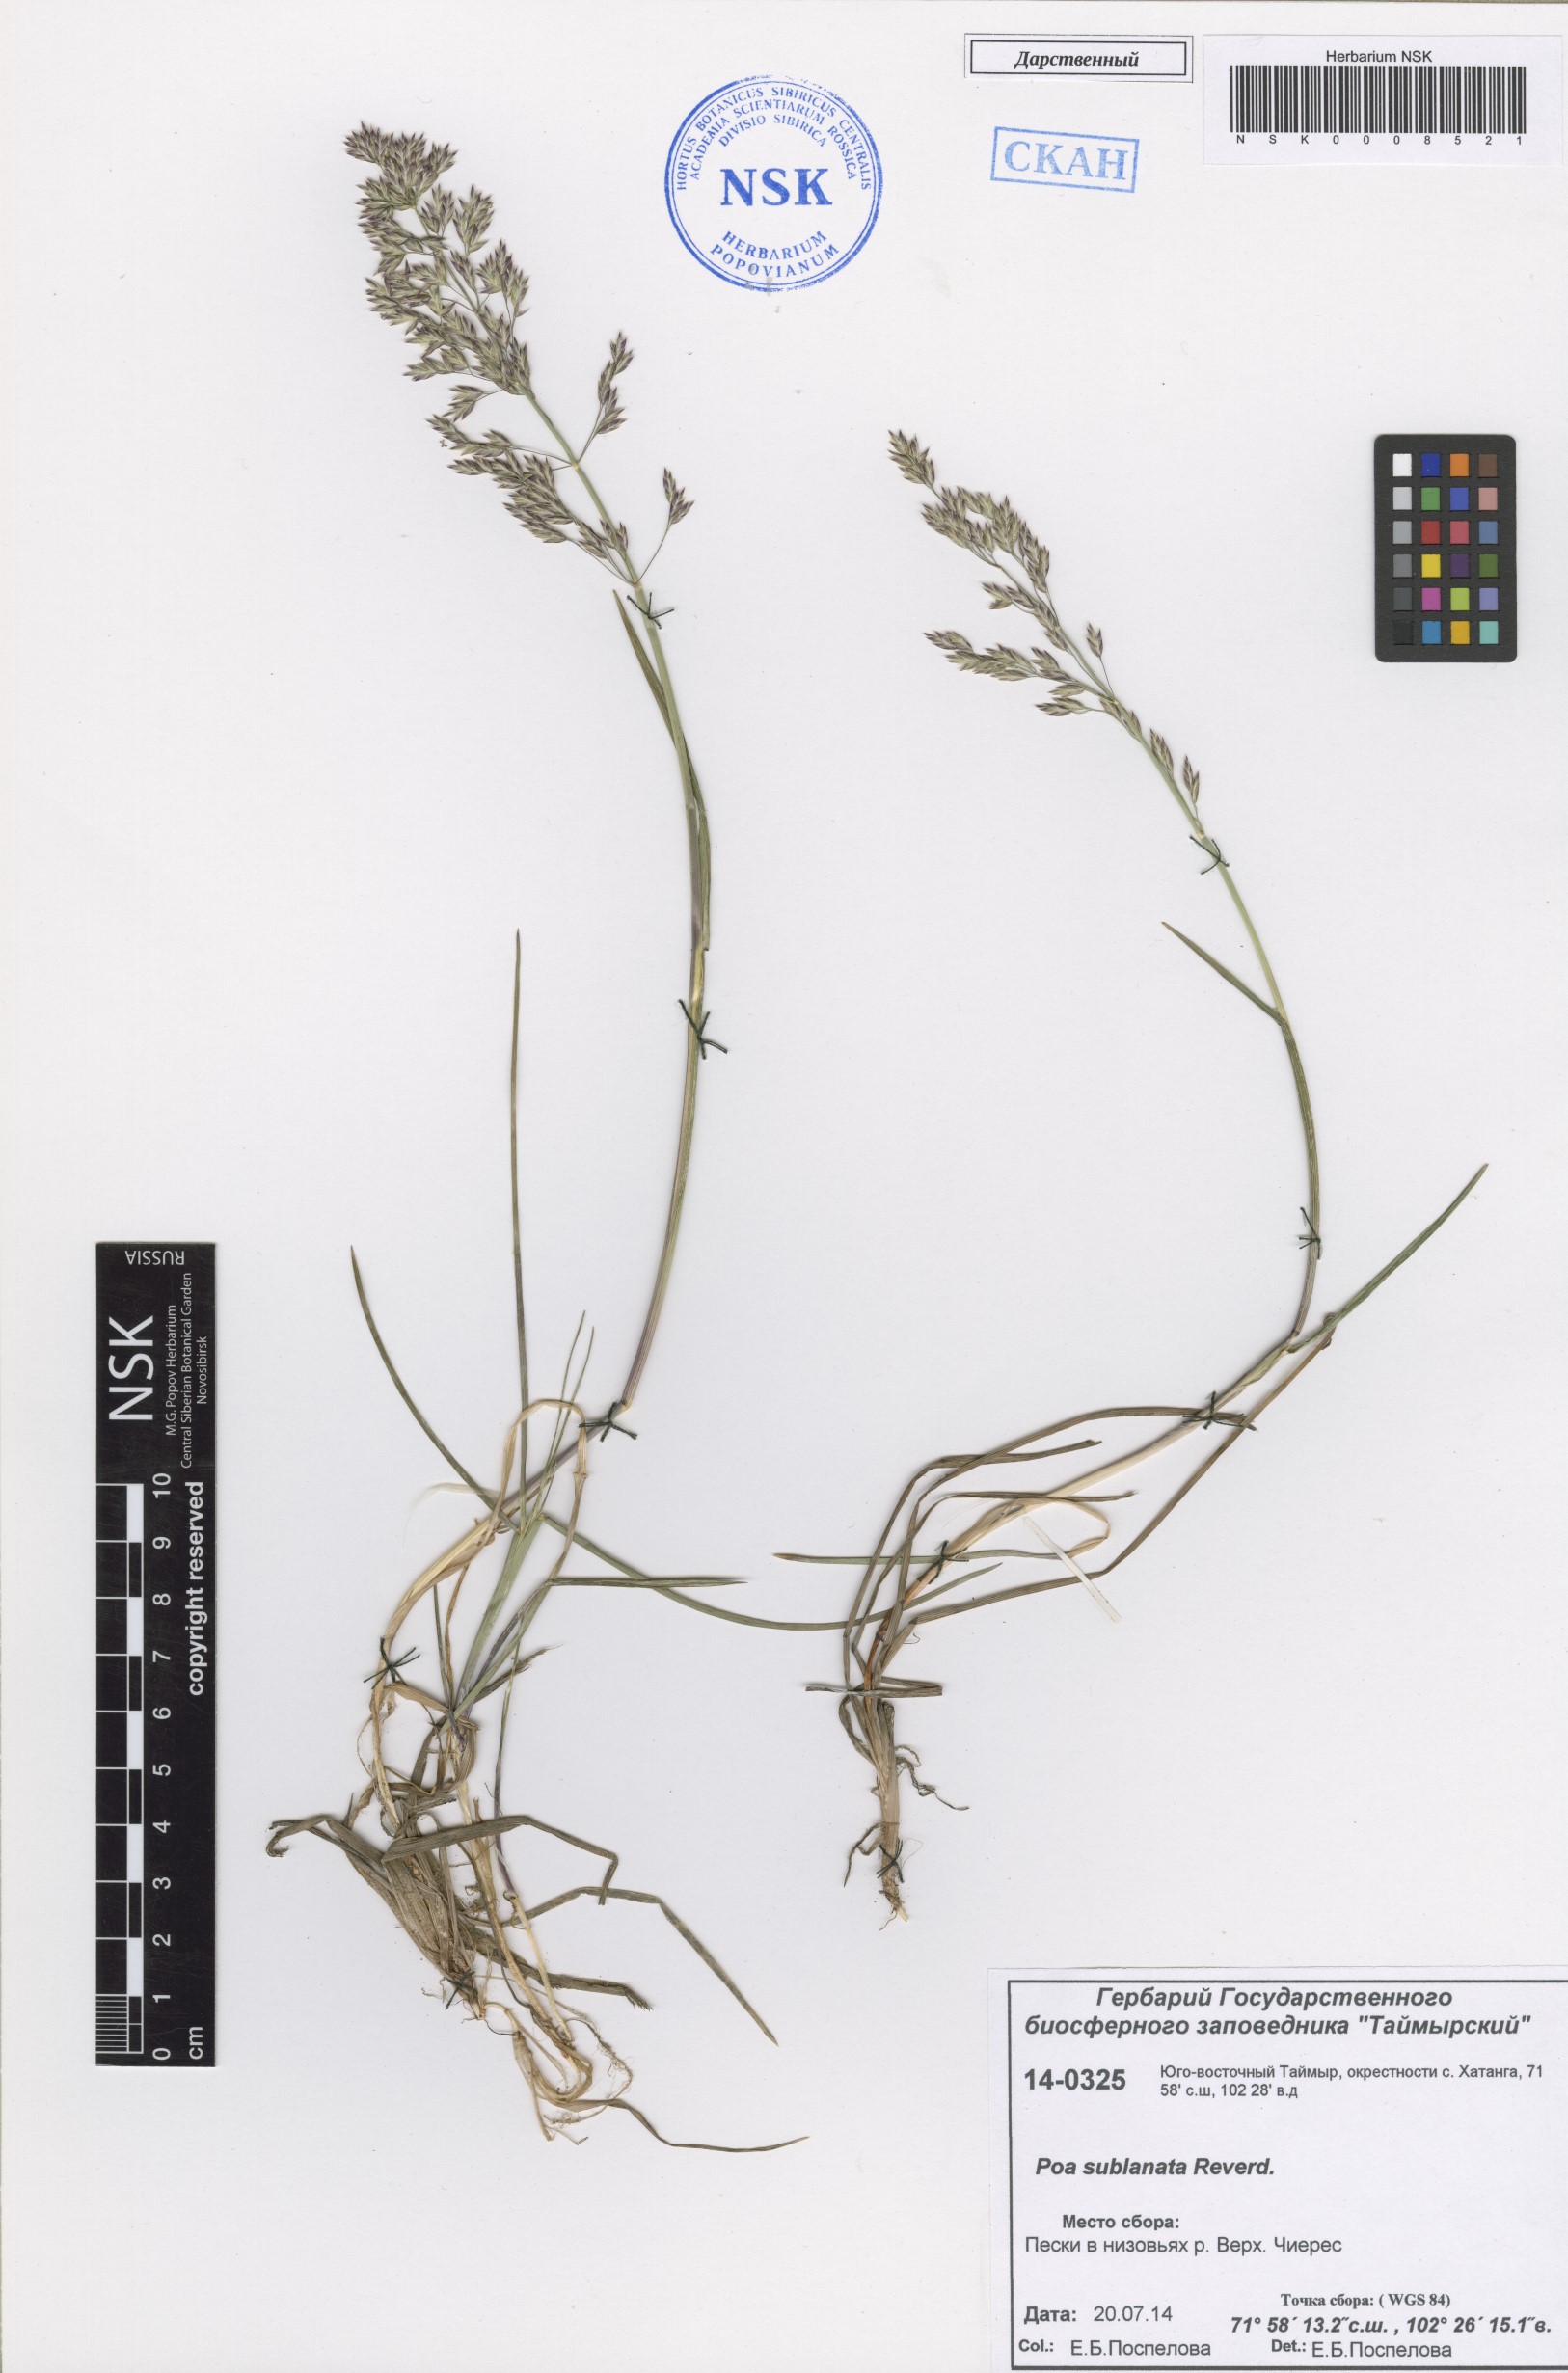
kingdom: Plantae
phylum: Tracheophyta
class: Liliopsida
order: Poales
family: Poaceae
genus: Poa
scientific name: Poa sublanata
